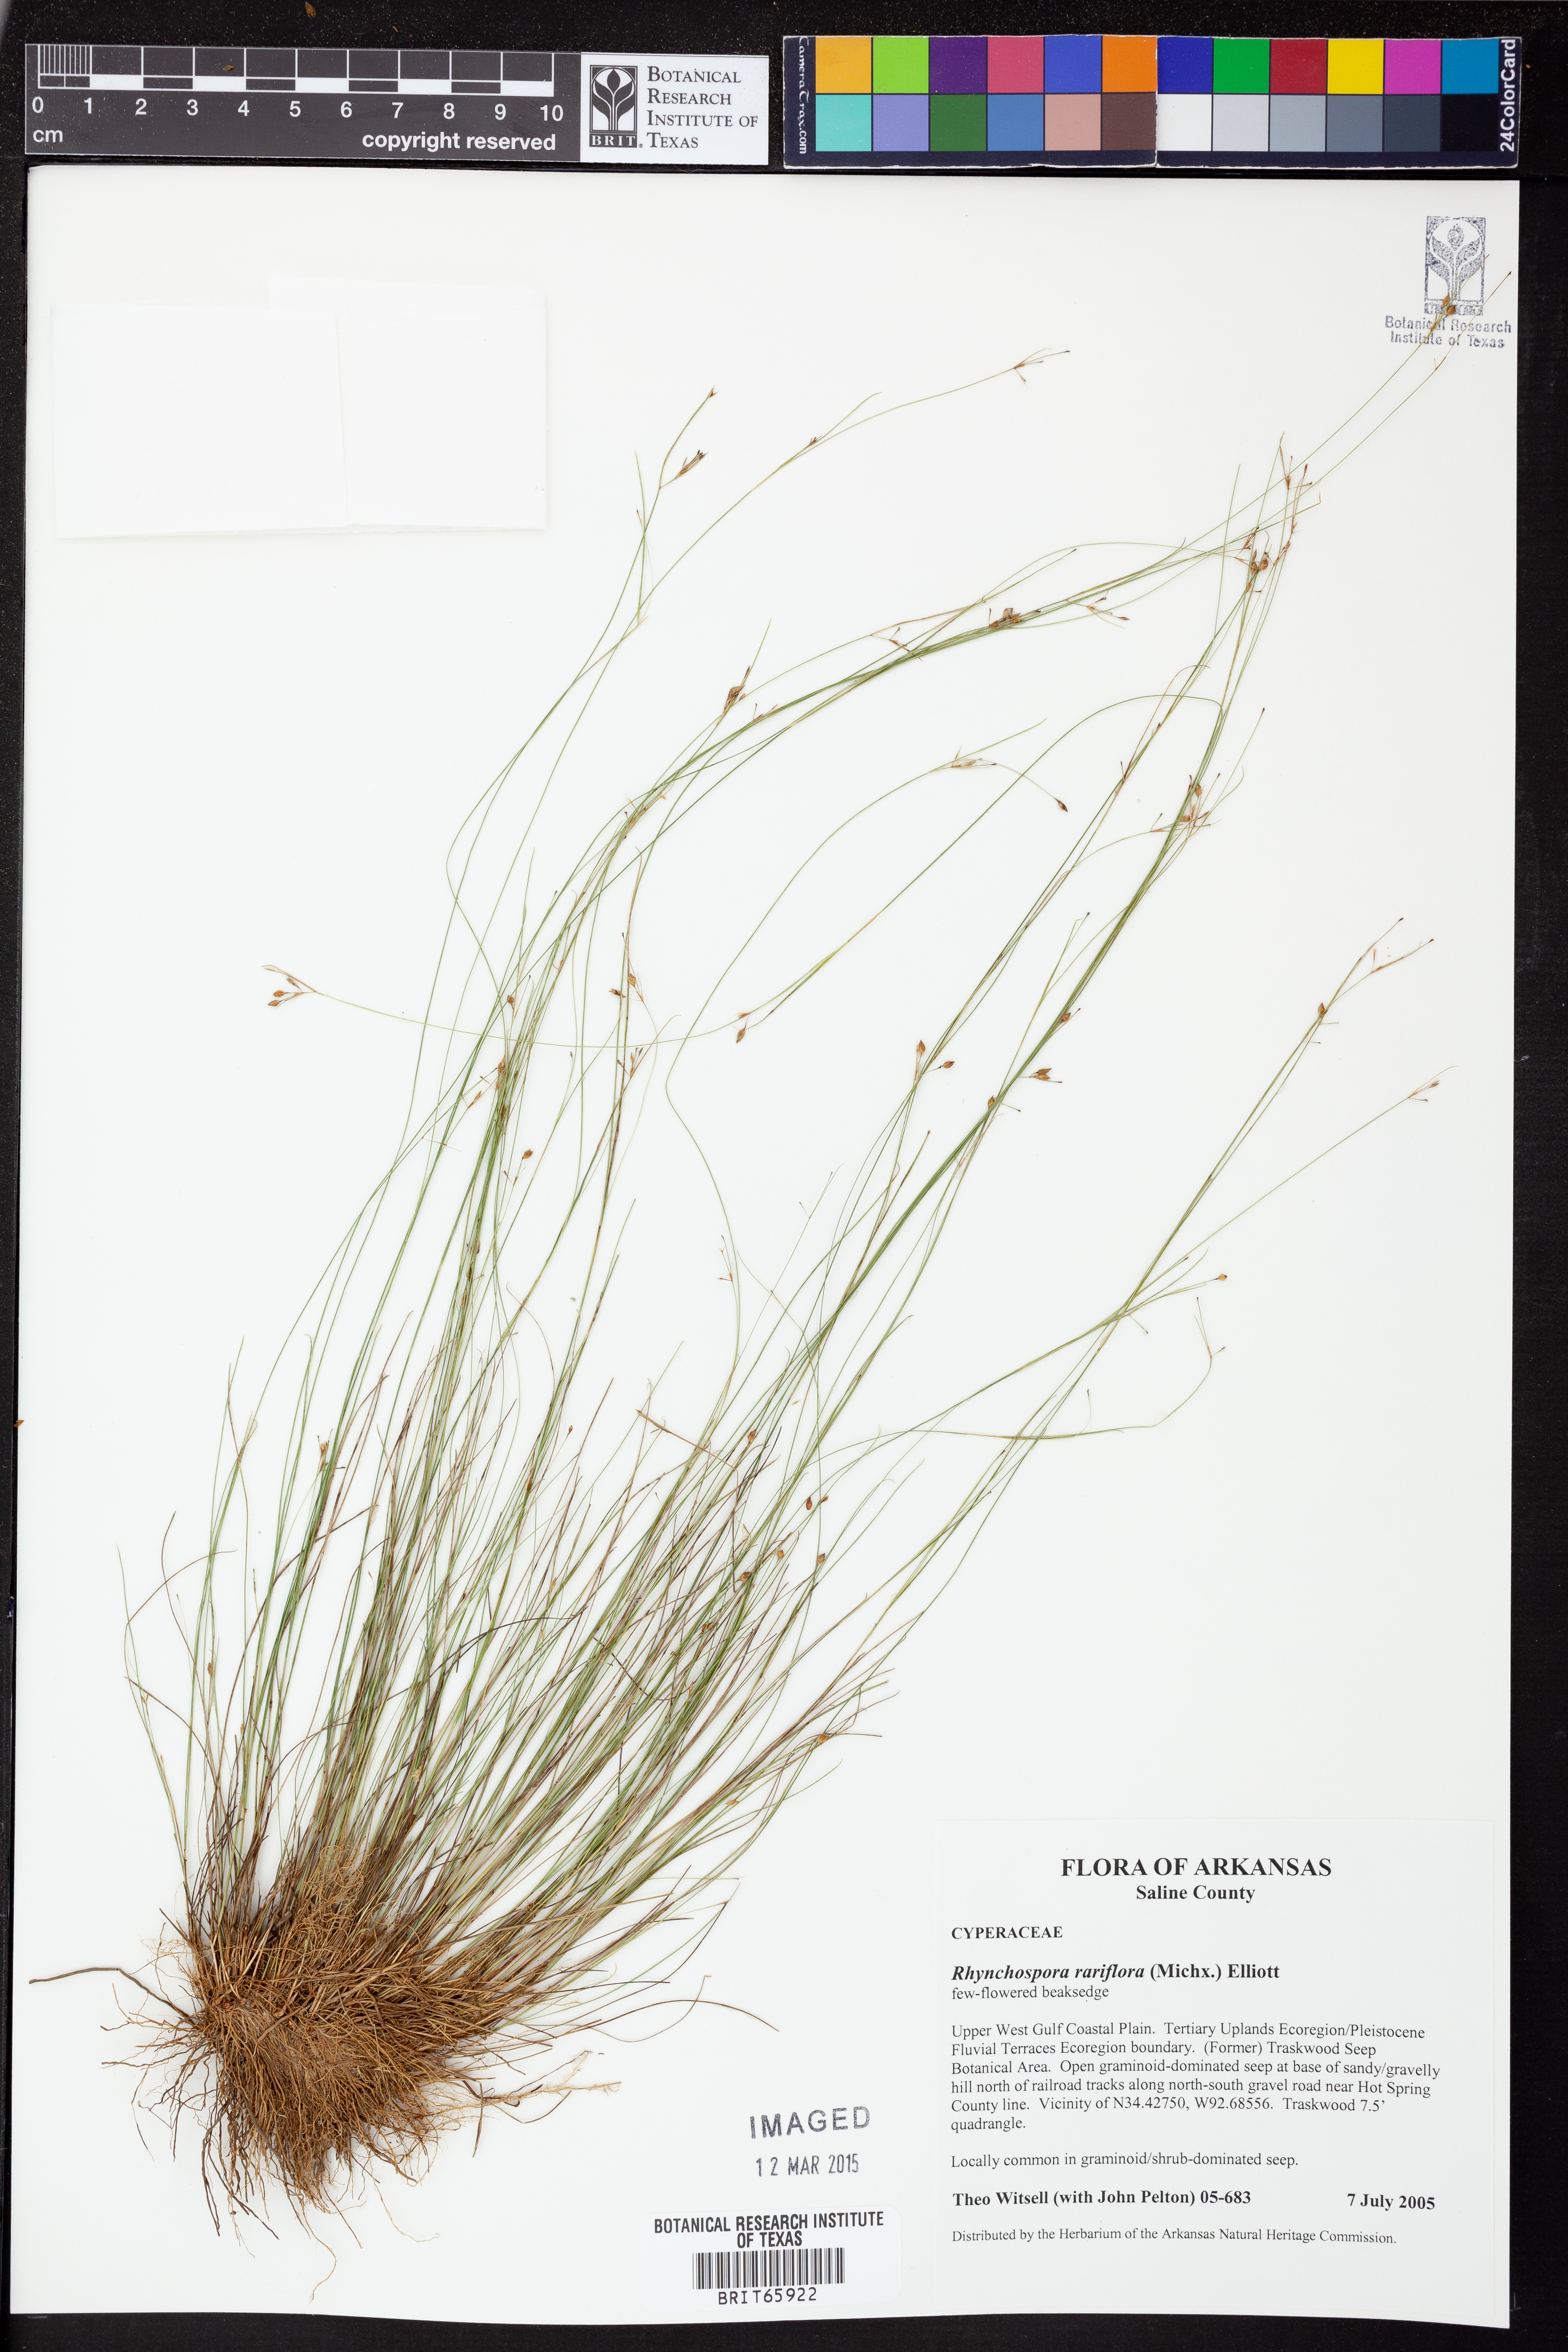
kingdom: Plantae
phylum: Tracheophyta
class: Liliopsida
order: Poales
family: Cyperaceae
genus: Rhynchospora
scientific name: Rhynchospora rariflora
